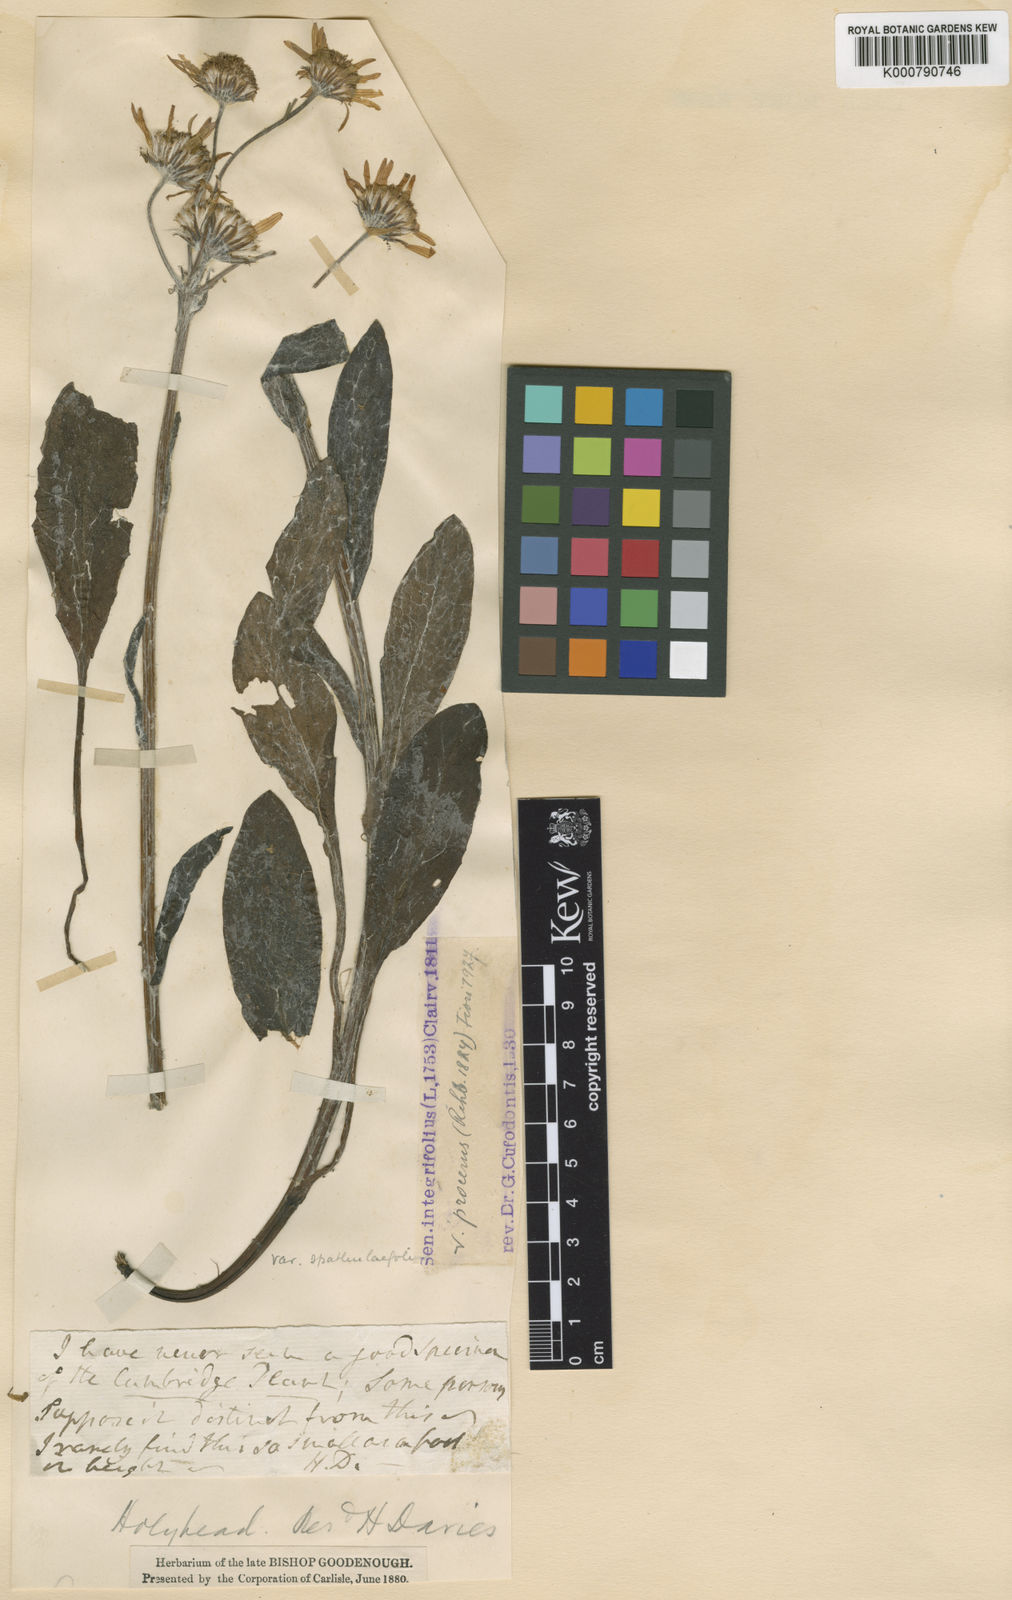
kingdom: Plantae
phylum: Tracheophyta
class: Magnoliopsida
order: Asterales
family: Asteraceae
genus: Tephroseris
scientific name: Tephroseris integrifolia
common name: Field fleawort
